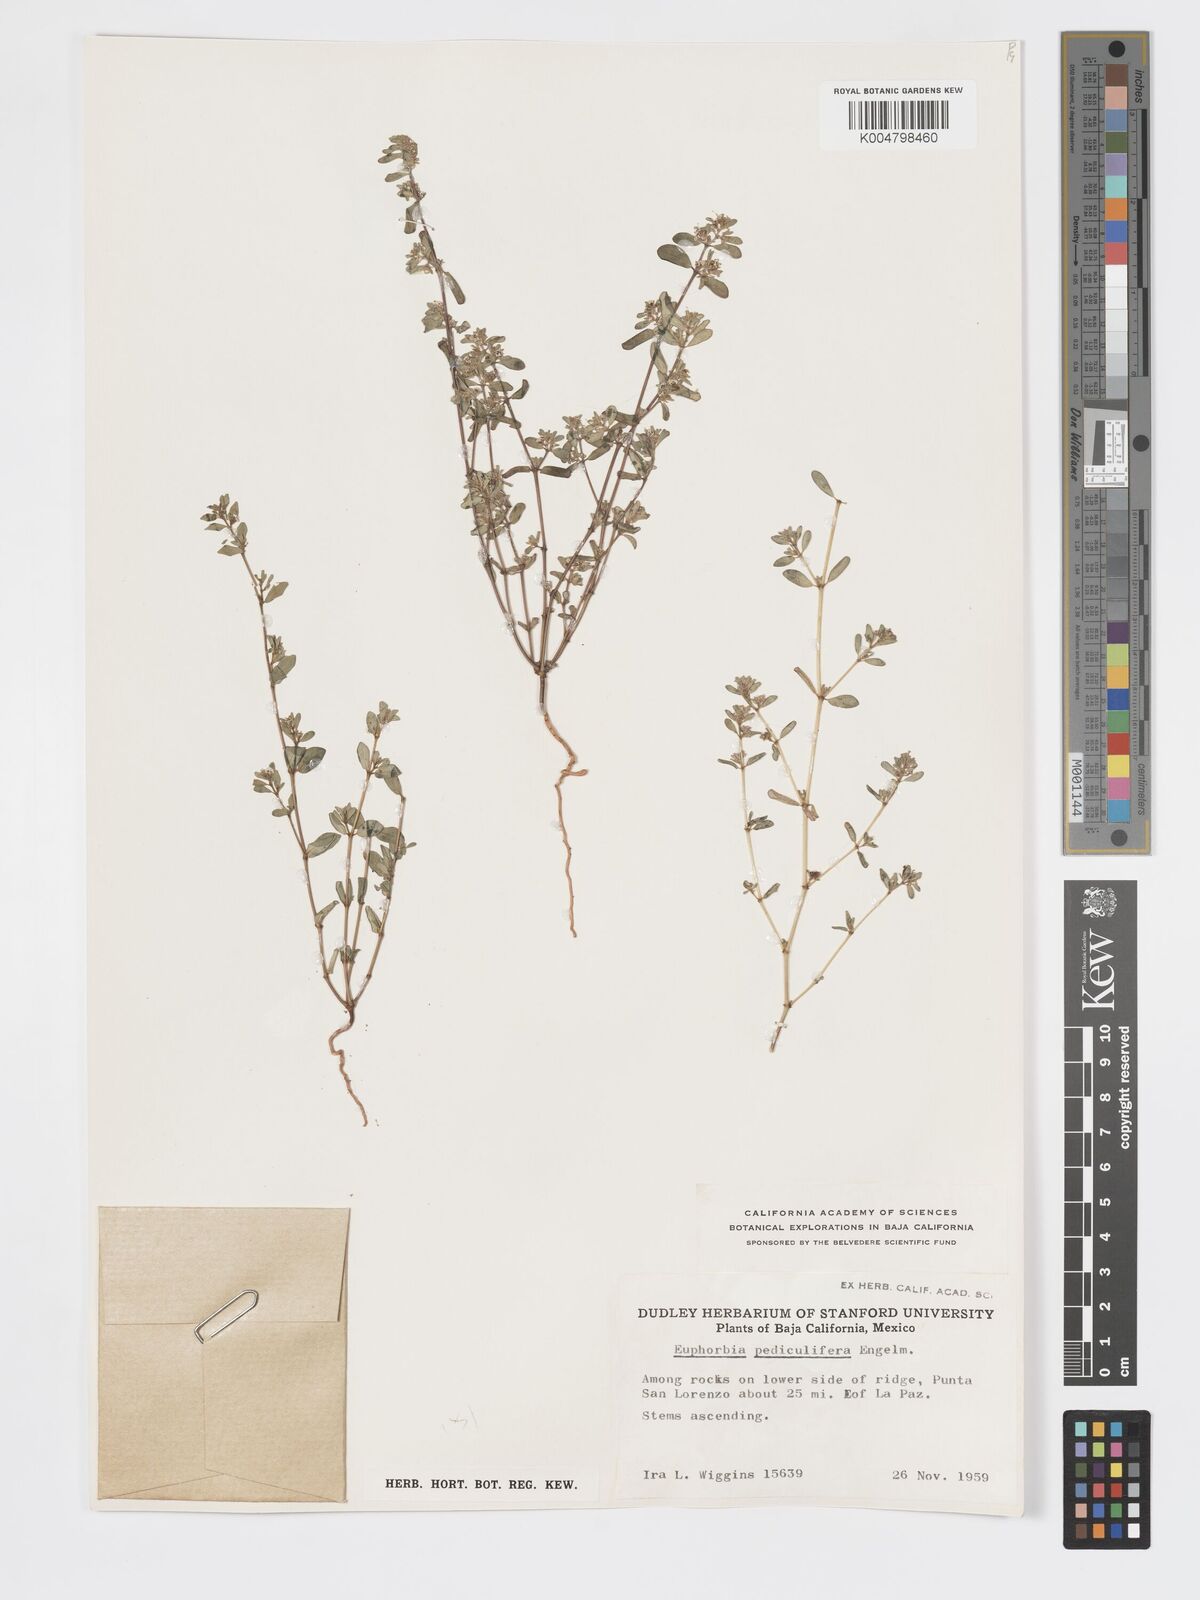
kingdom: Plantae
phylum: Tracheophyta
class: Magnoliopsida
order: Malpighiales
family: Euphorbiaceae
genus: Euphorbia
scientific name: Euphorbia pediculifera
